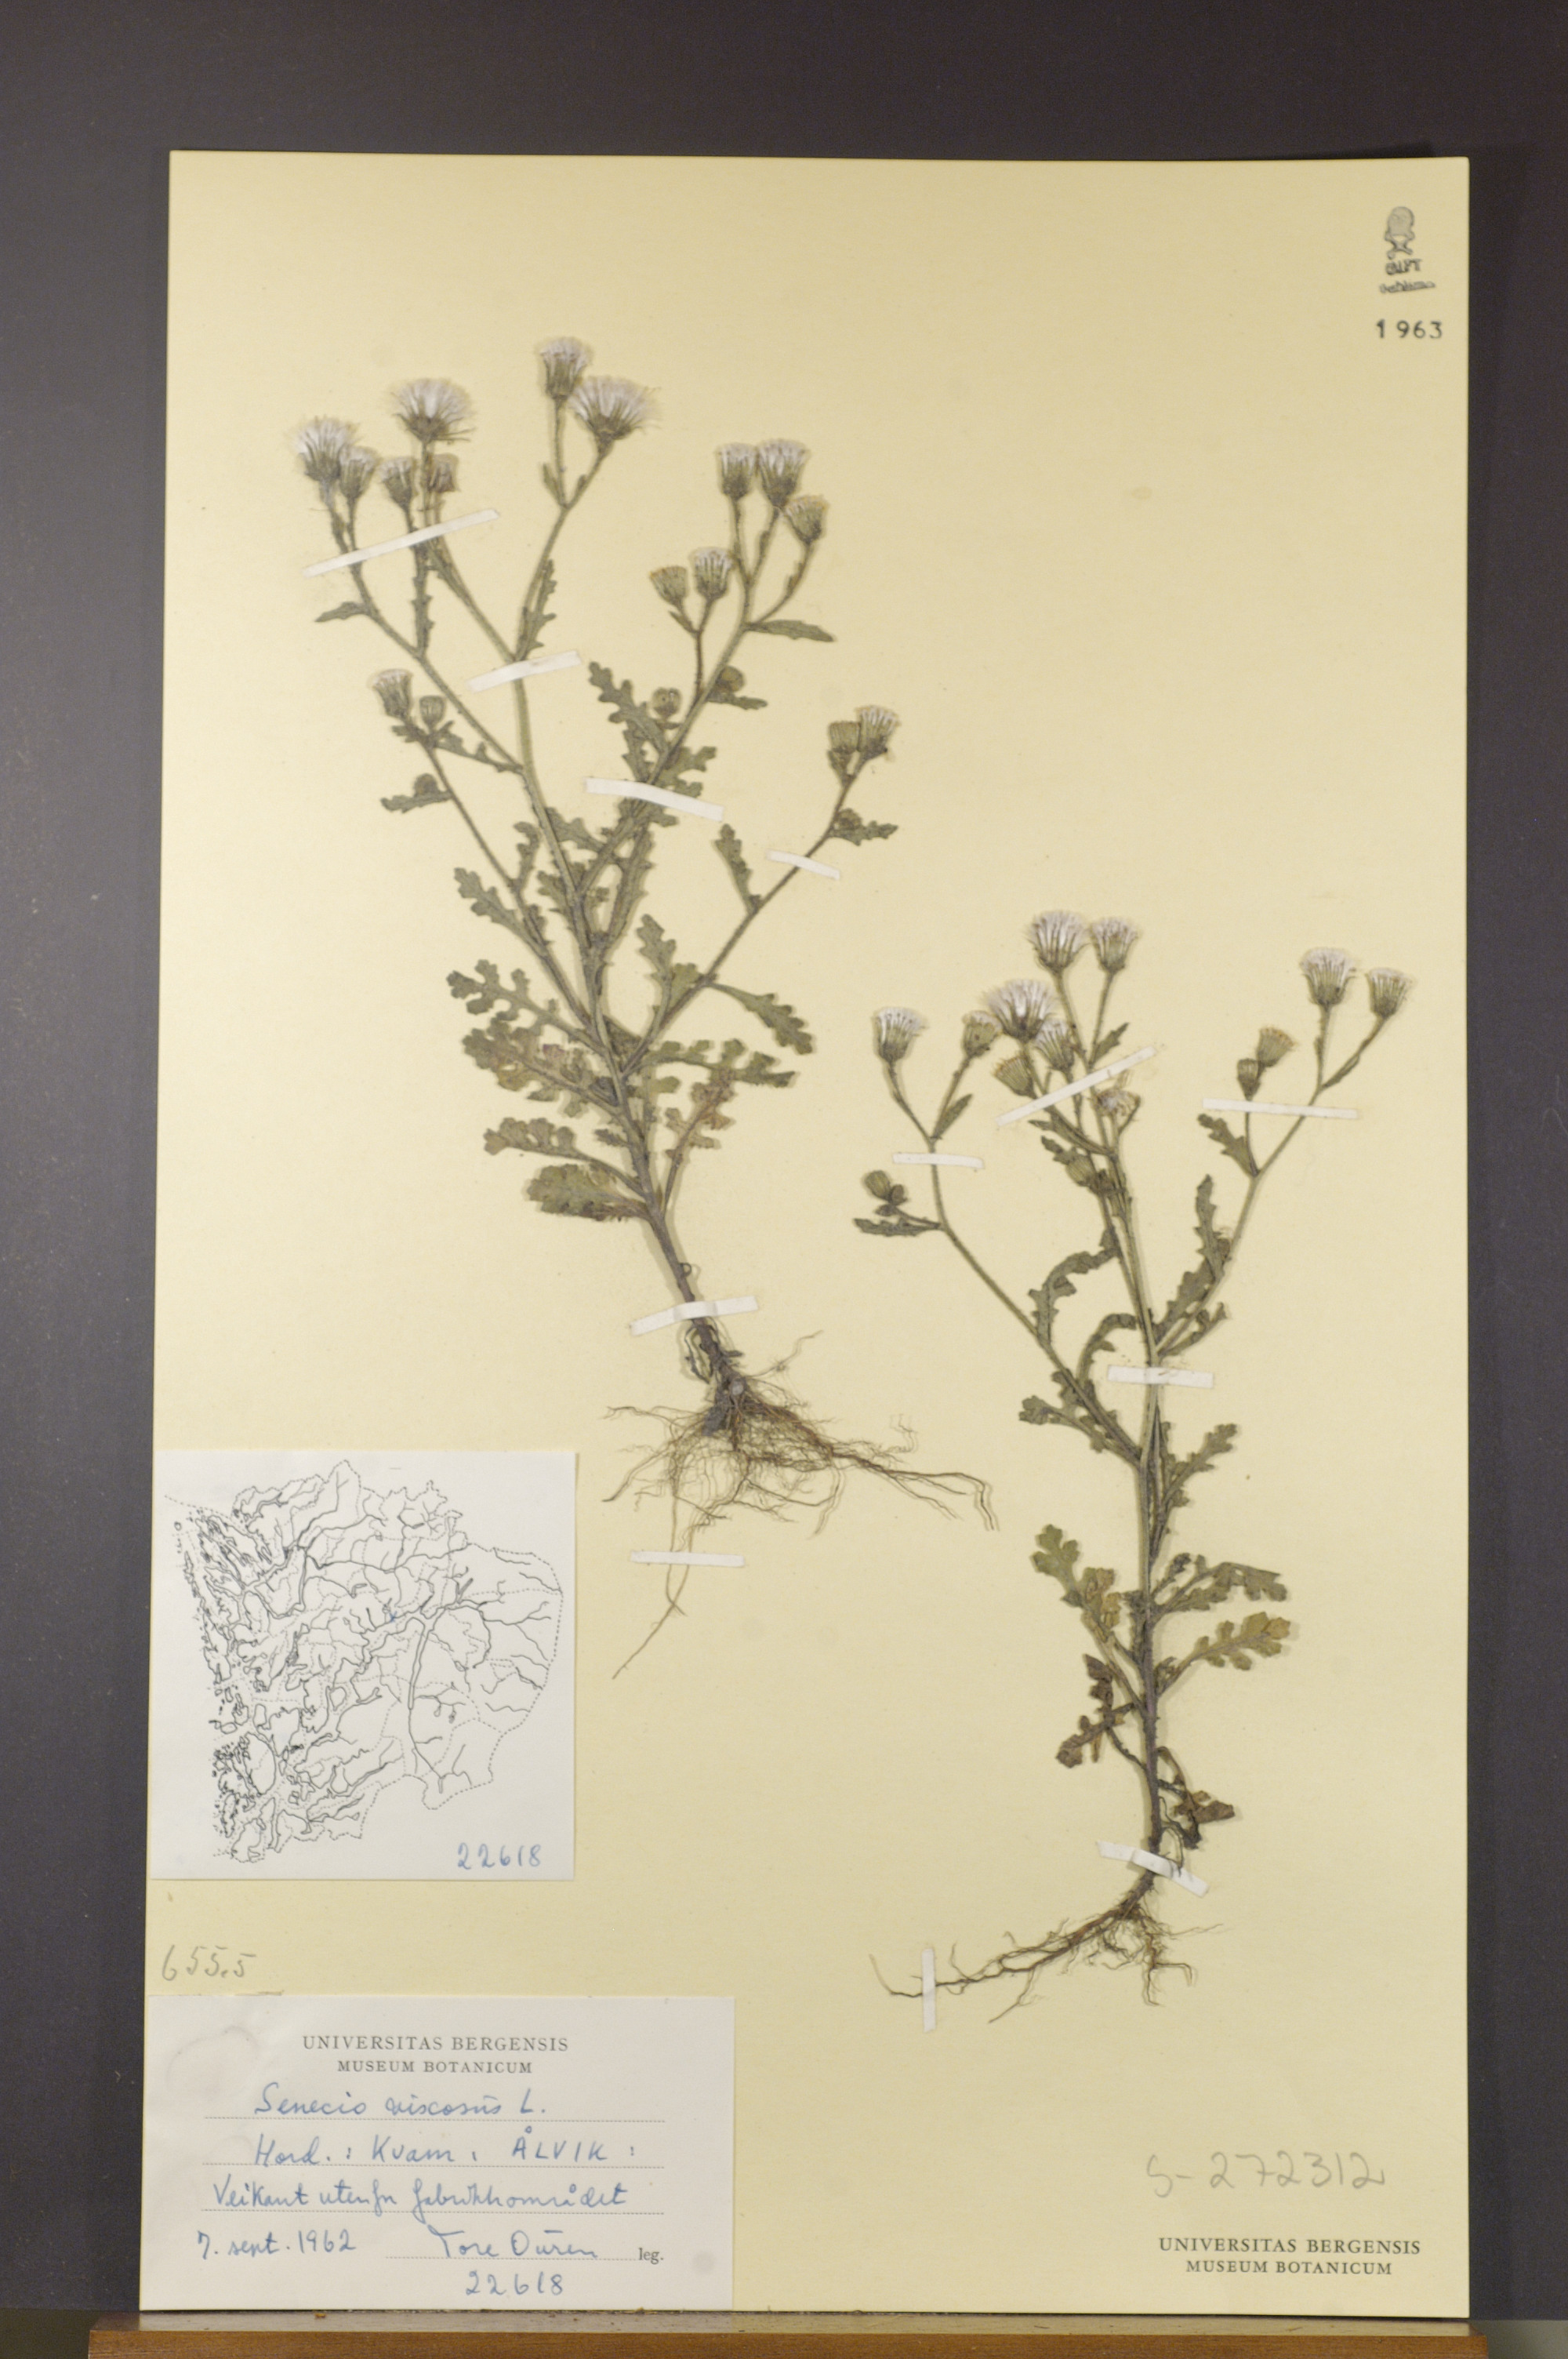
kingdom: Plantae
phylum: Tracheophyta
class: Magnoliopsida
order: Asterales
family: Asteraceae
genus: Senecio
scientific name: Senecio viscosus
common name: Sticky groundsel
